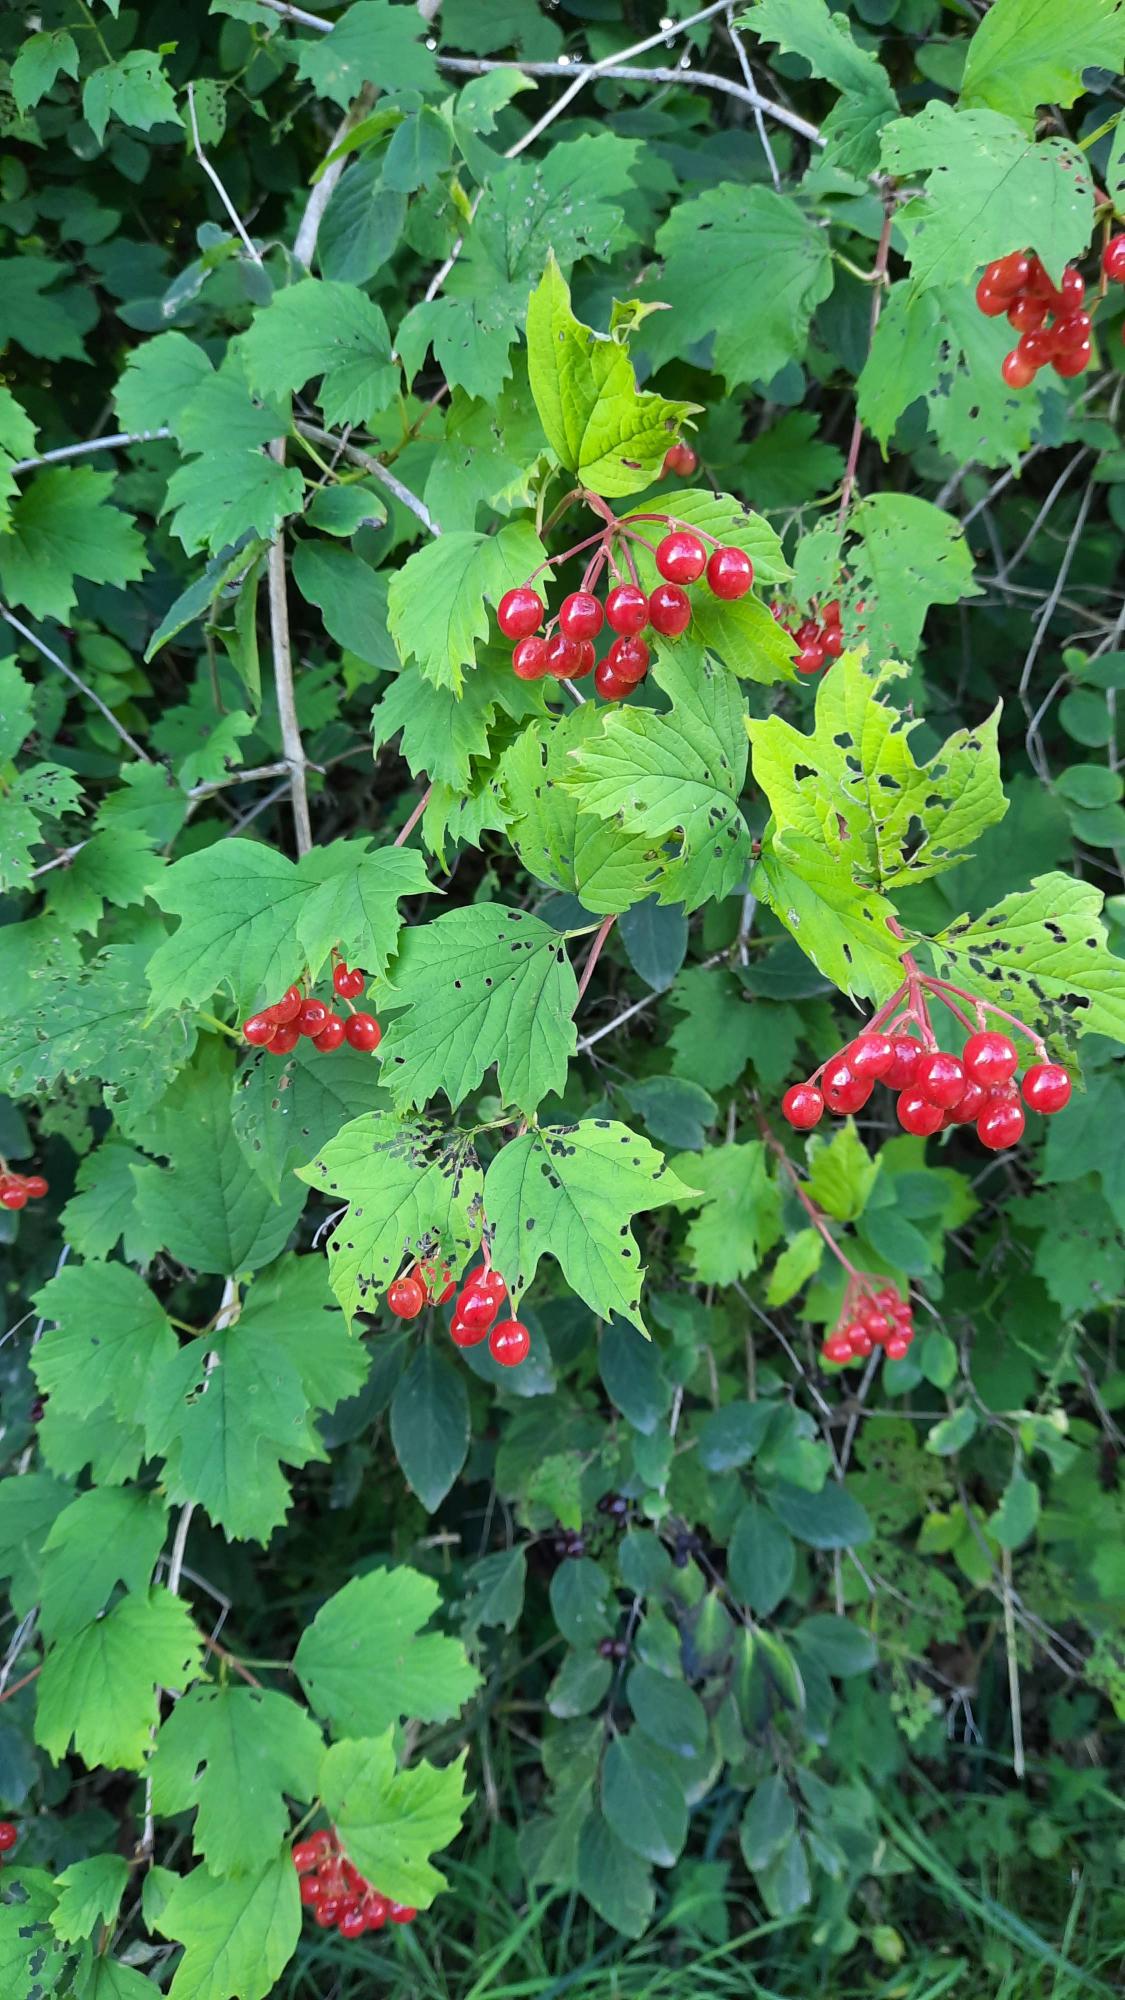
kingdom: Plantae
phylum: Tracheophyta
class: Magnoliopsida
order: Dipsacales
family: Viburnaceae
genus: Viburnum
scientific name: Viburnum opulus
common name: Kvalkved
